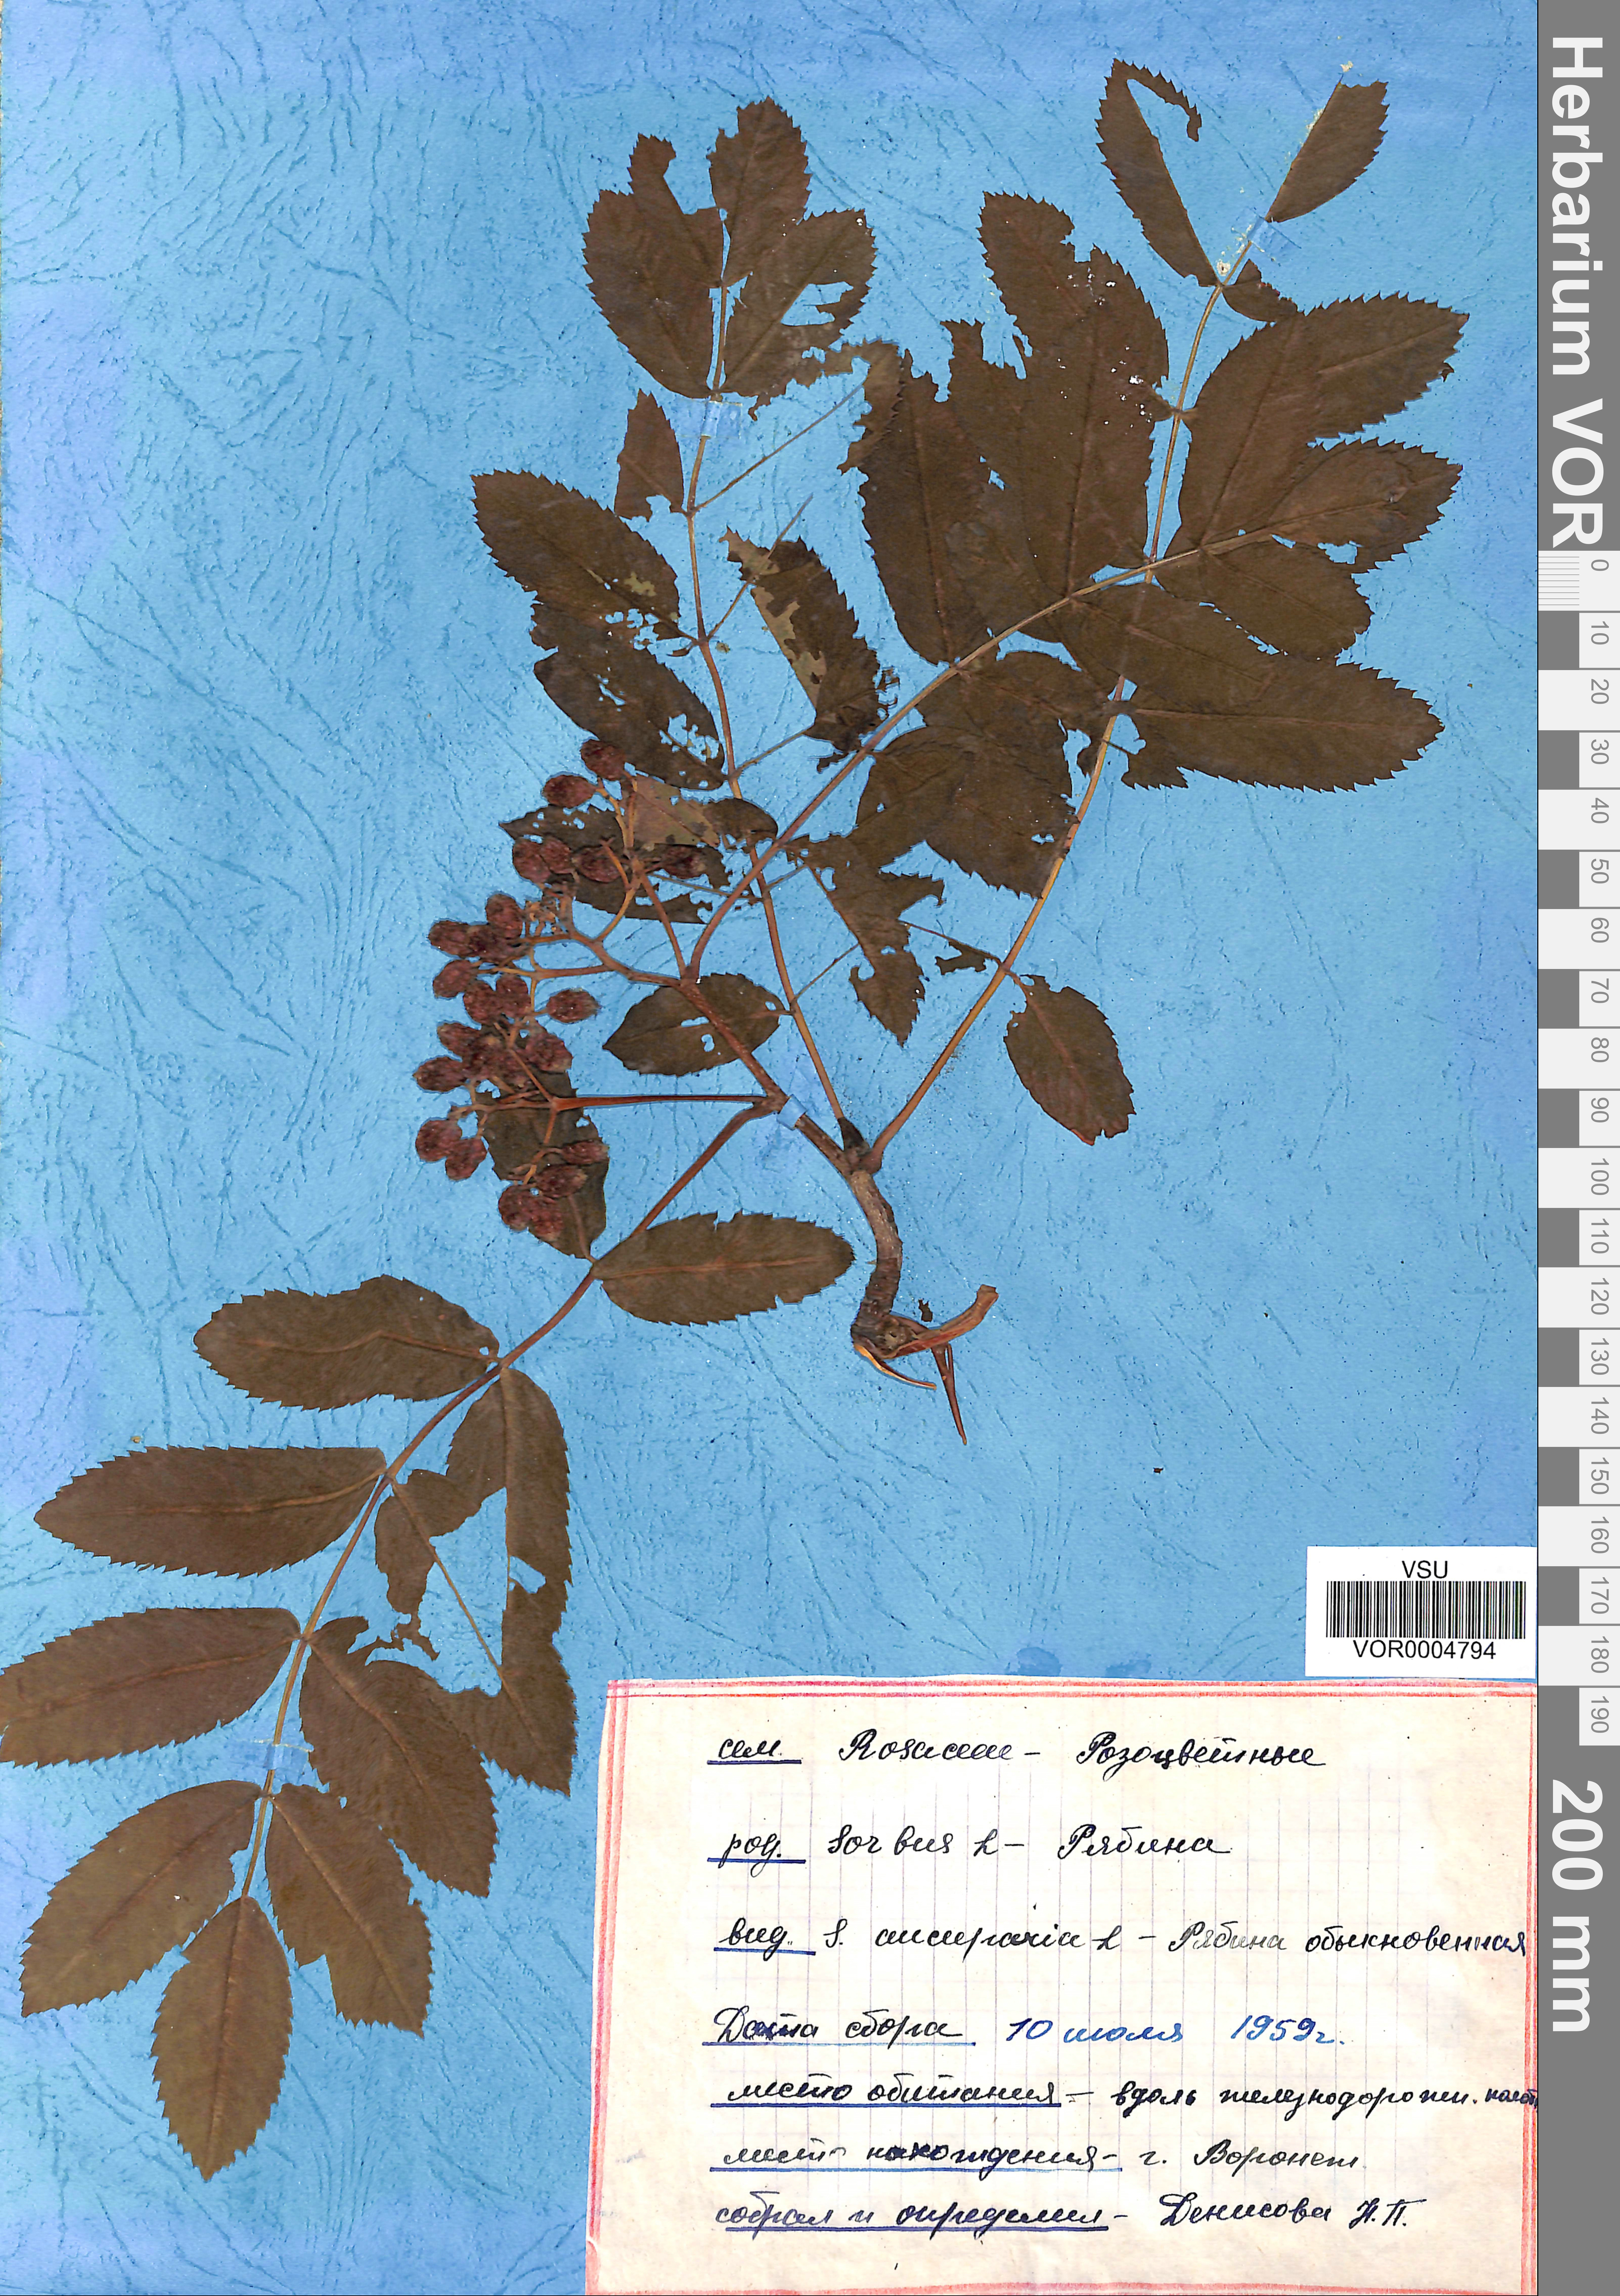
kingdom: Plantae
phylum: Tracheophyta
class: Magnoliopsida
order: Rosales
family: Rosaceae
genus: Sorbus
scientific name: Sorbus aucuparia
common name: Rowan
